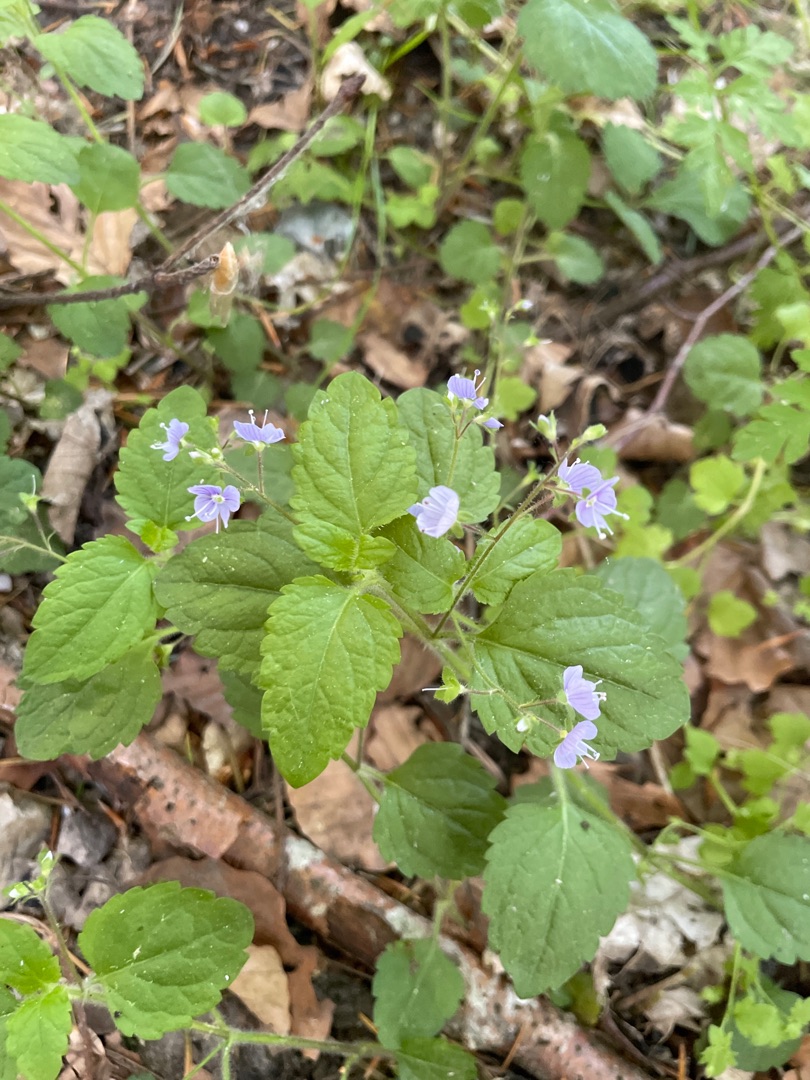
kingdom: Plantae
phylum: Tracheophyta
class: Magnoliopsida
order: Lamiales
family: Plantaginaceae
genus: Veronica
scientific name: Veronica montana
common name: Bjerg-ærenpris
